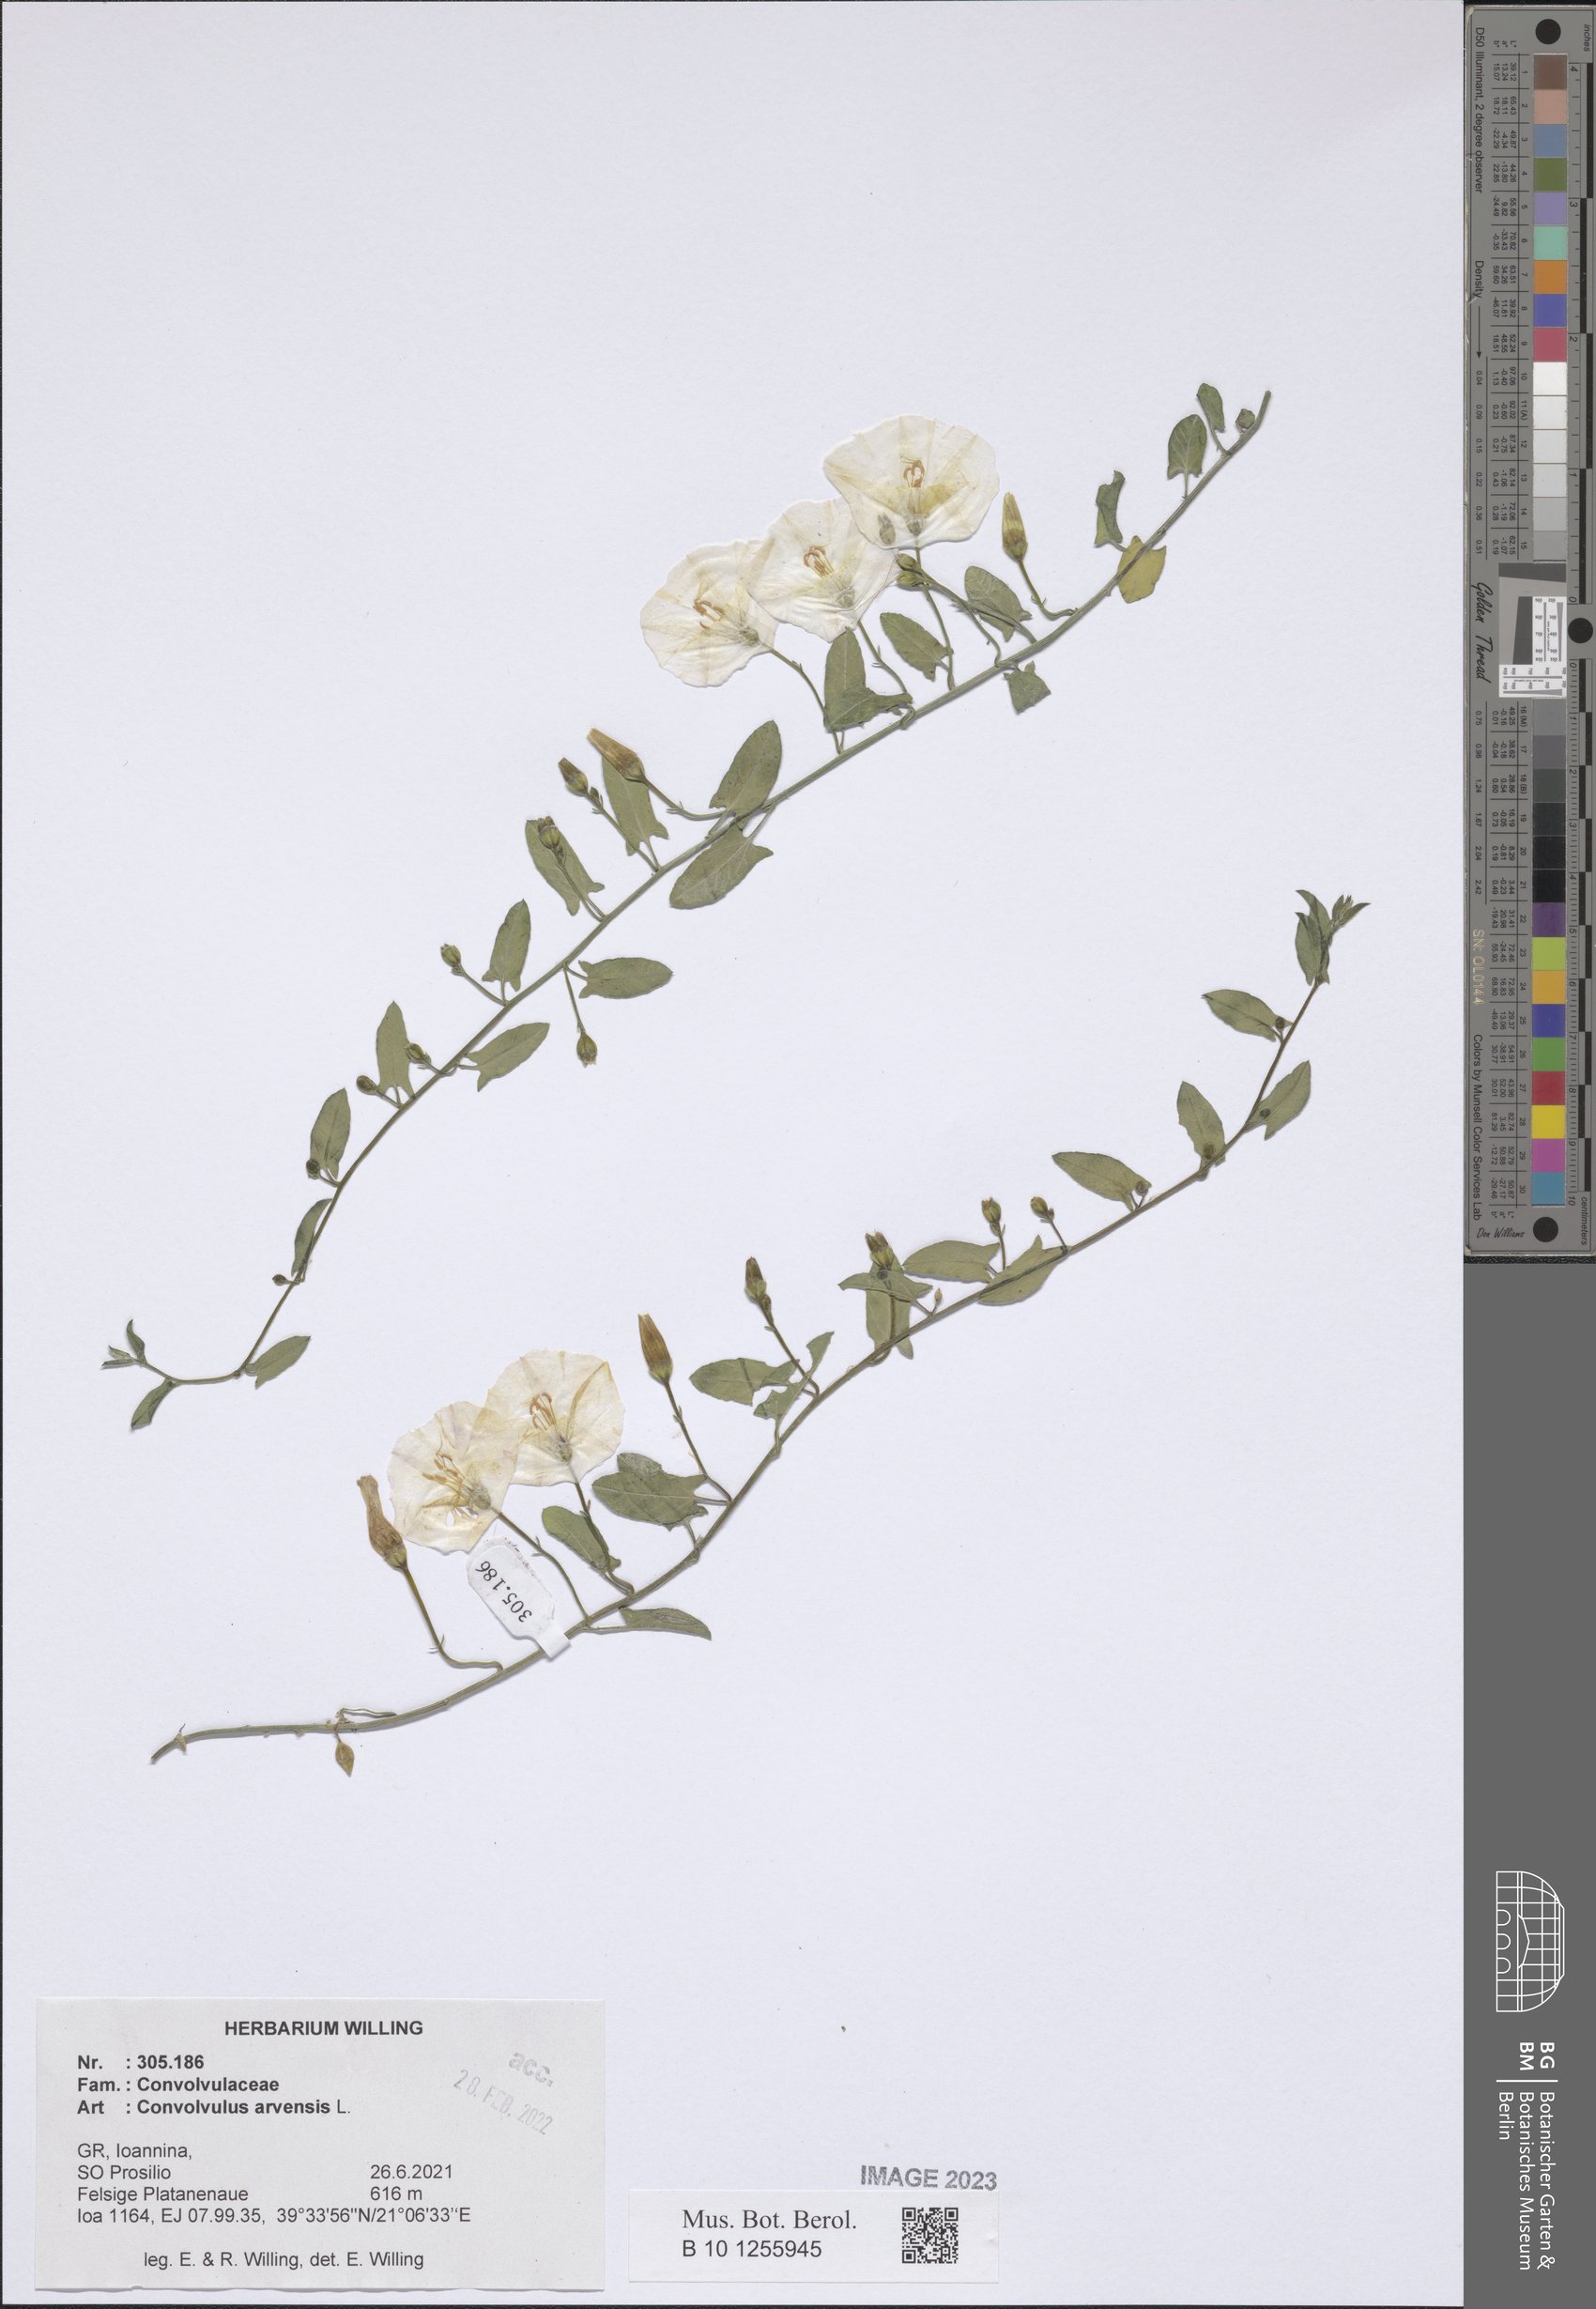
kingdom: Plantae
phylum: Tracheophyta
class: Magnoliopsida
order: Solanales
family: Convolvulaceae
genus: Convolvulus
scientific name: Convolvulus arvensis
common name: Field bindweed
